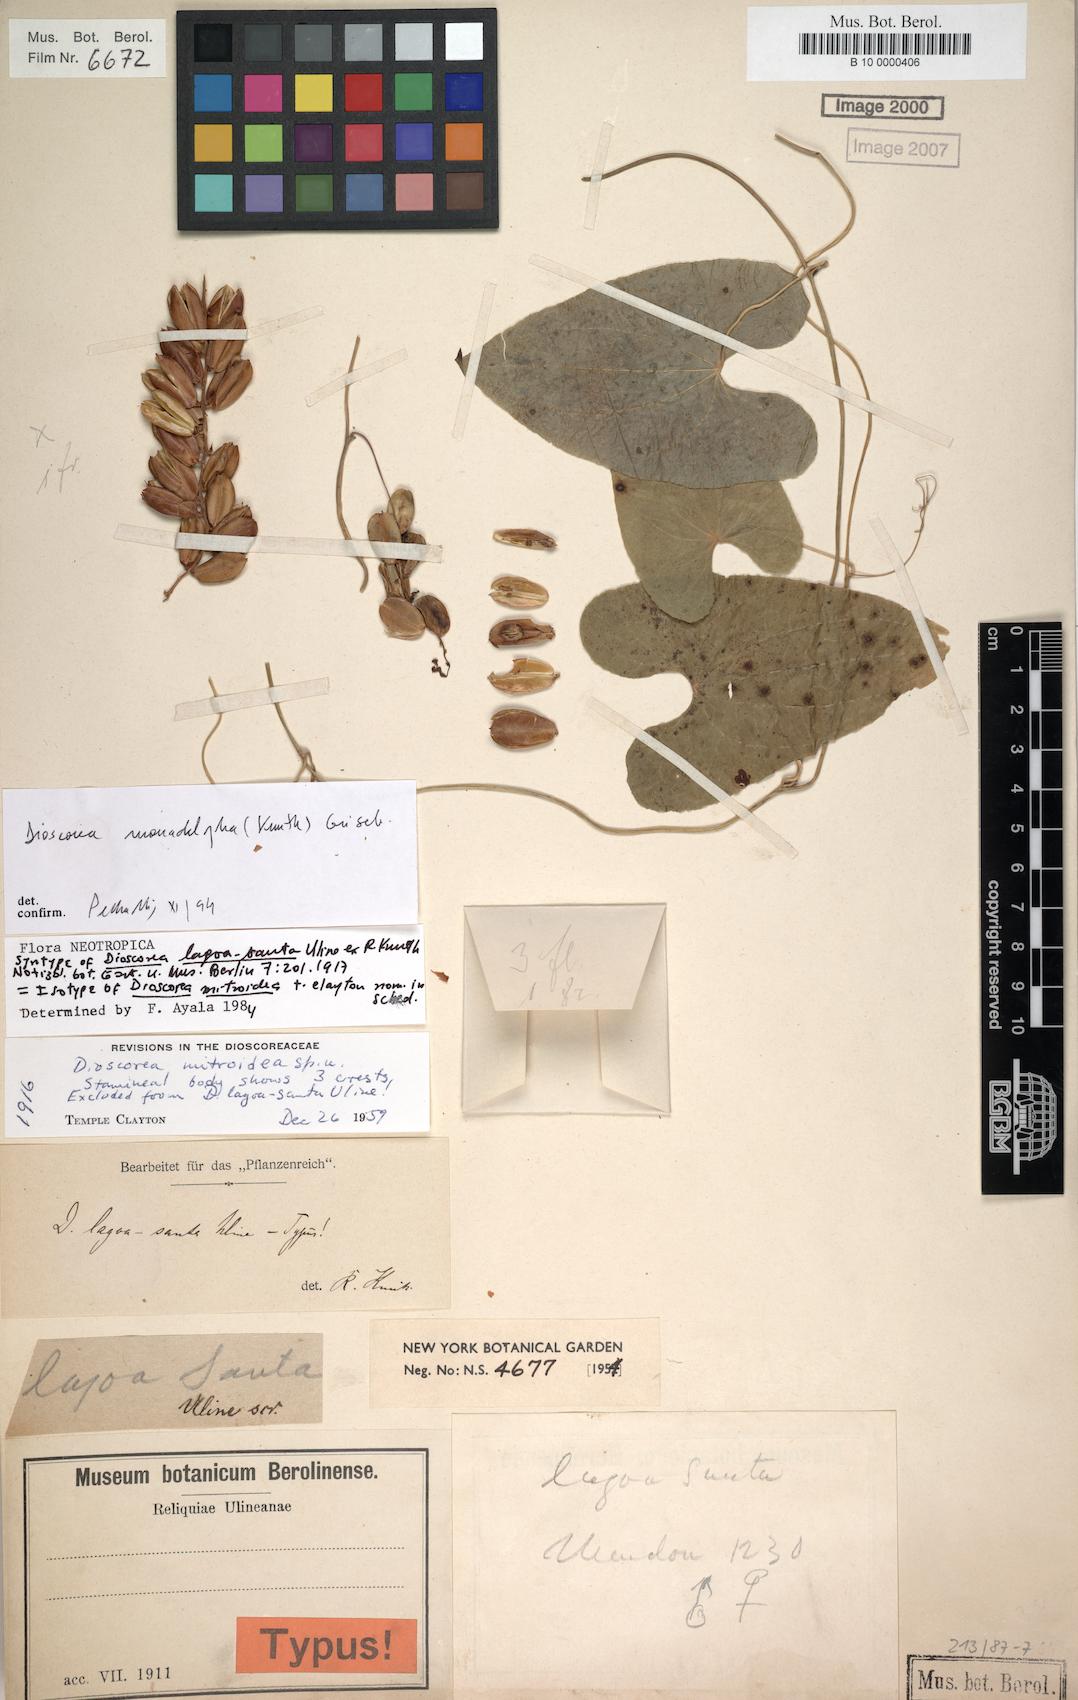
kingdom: Plantae
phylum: Tracheophyta
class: Liliopsida
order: Dioscoreales
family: Dioscoreaceae
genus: Dioscorea
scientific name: Dioscorea monadelpha
